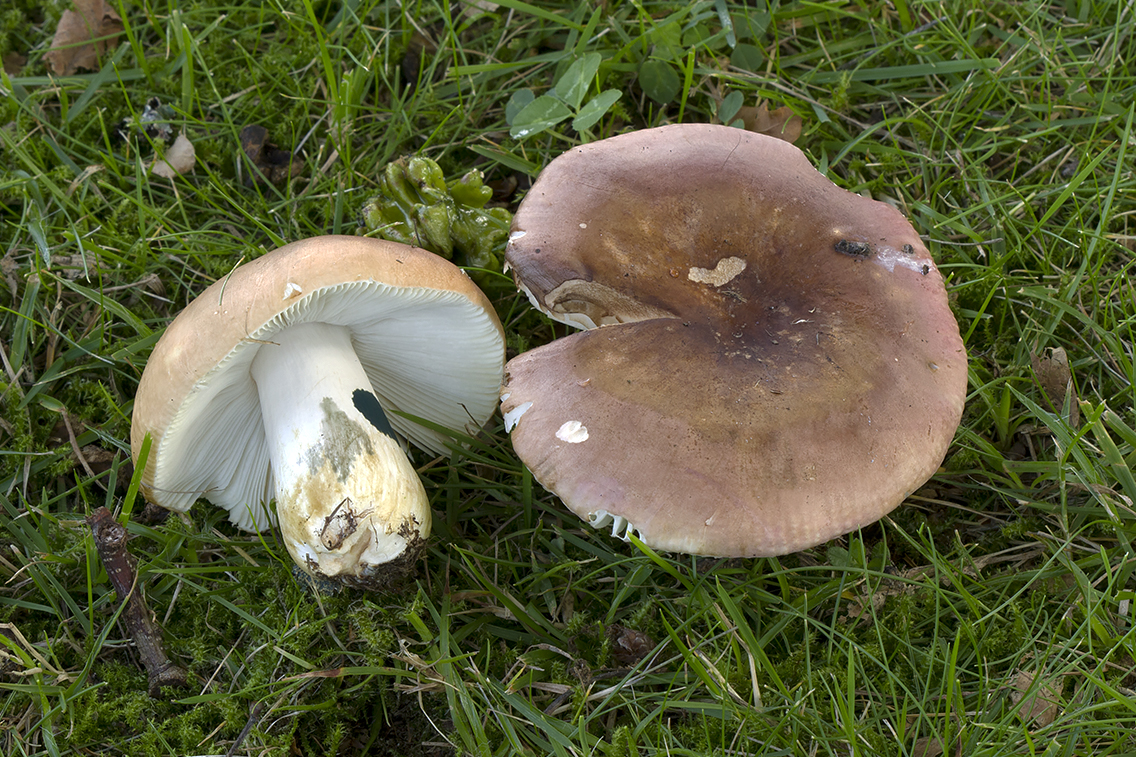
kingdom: Fungi
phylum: Basidiomycota
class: Agaricomycetes
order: Russulales
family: Russulaceae
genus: Russula
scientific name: Russula graveolens
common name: bugtet skørhat
